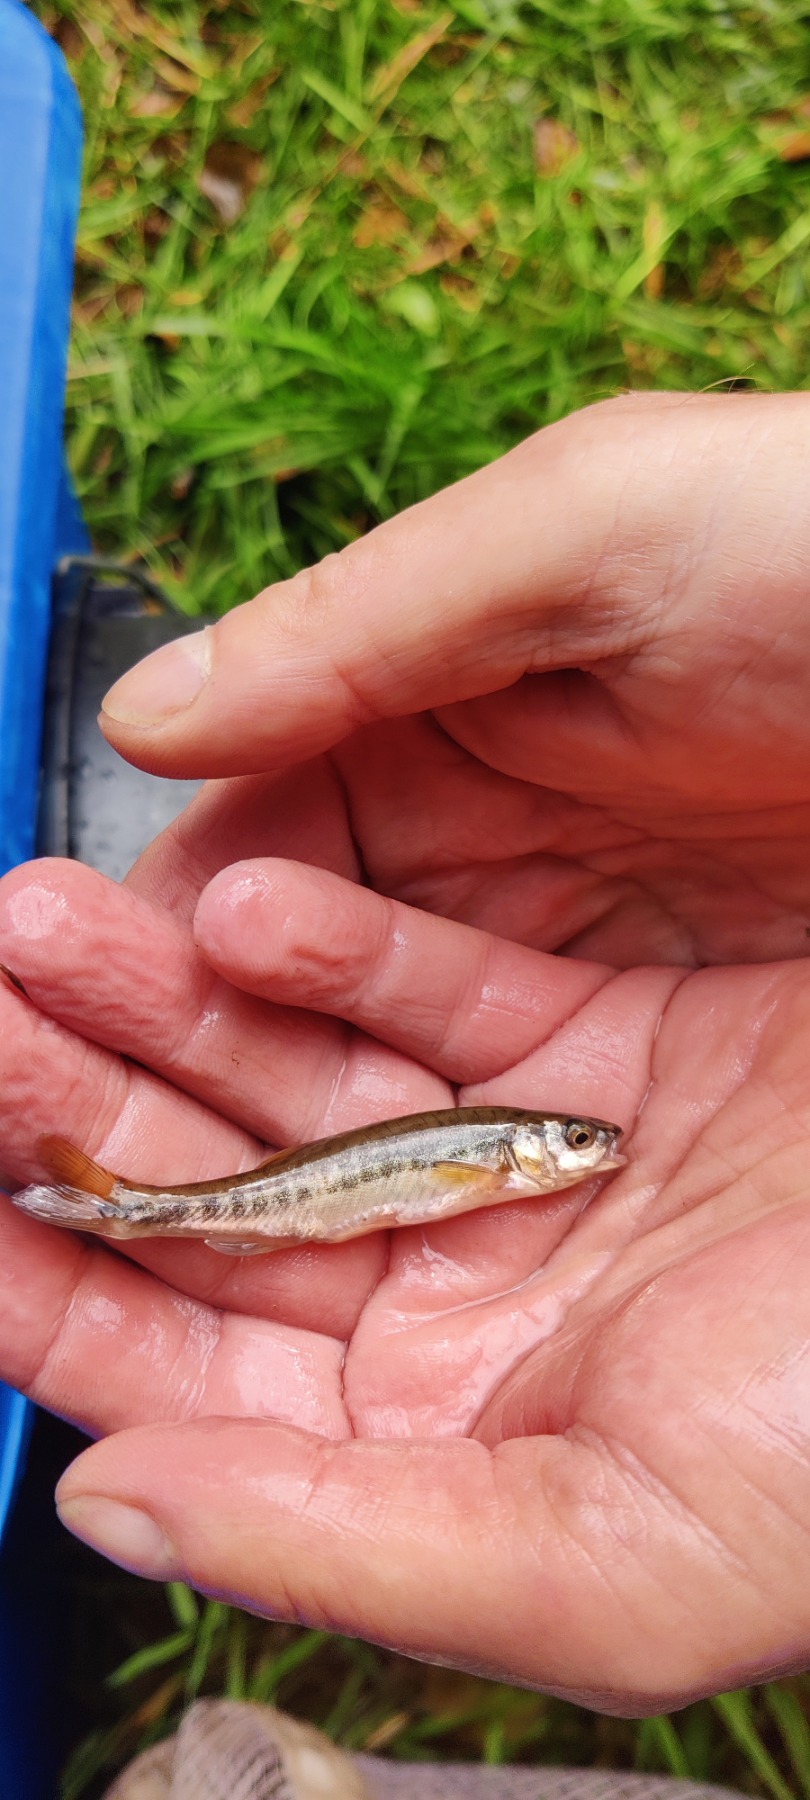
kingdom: Animalia
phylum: Chordata
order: Cypriniformes
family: Cyprinidae
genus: Phoxinus
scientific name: Phoxinus phoxinus
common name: Elritse
